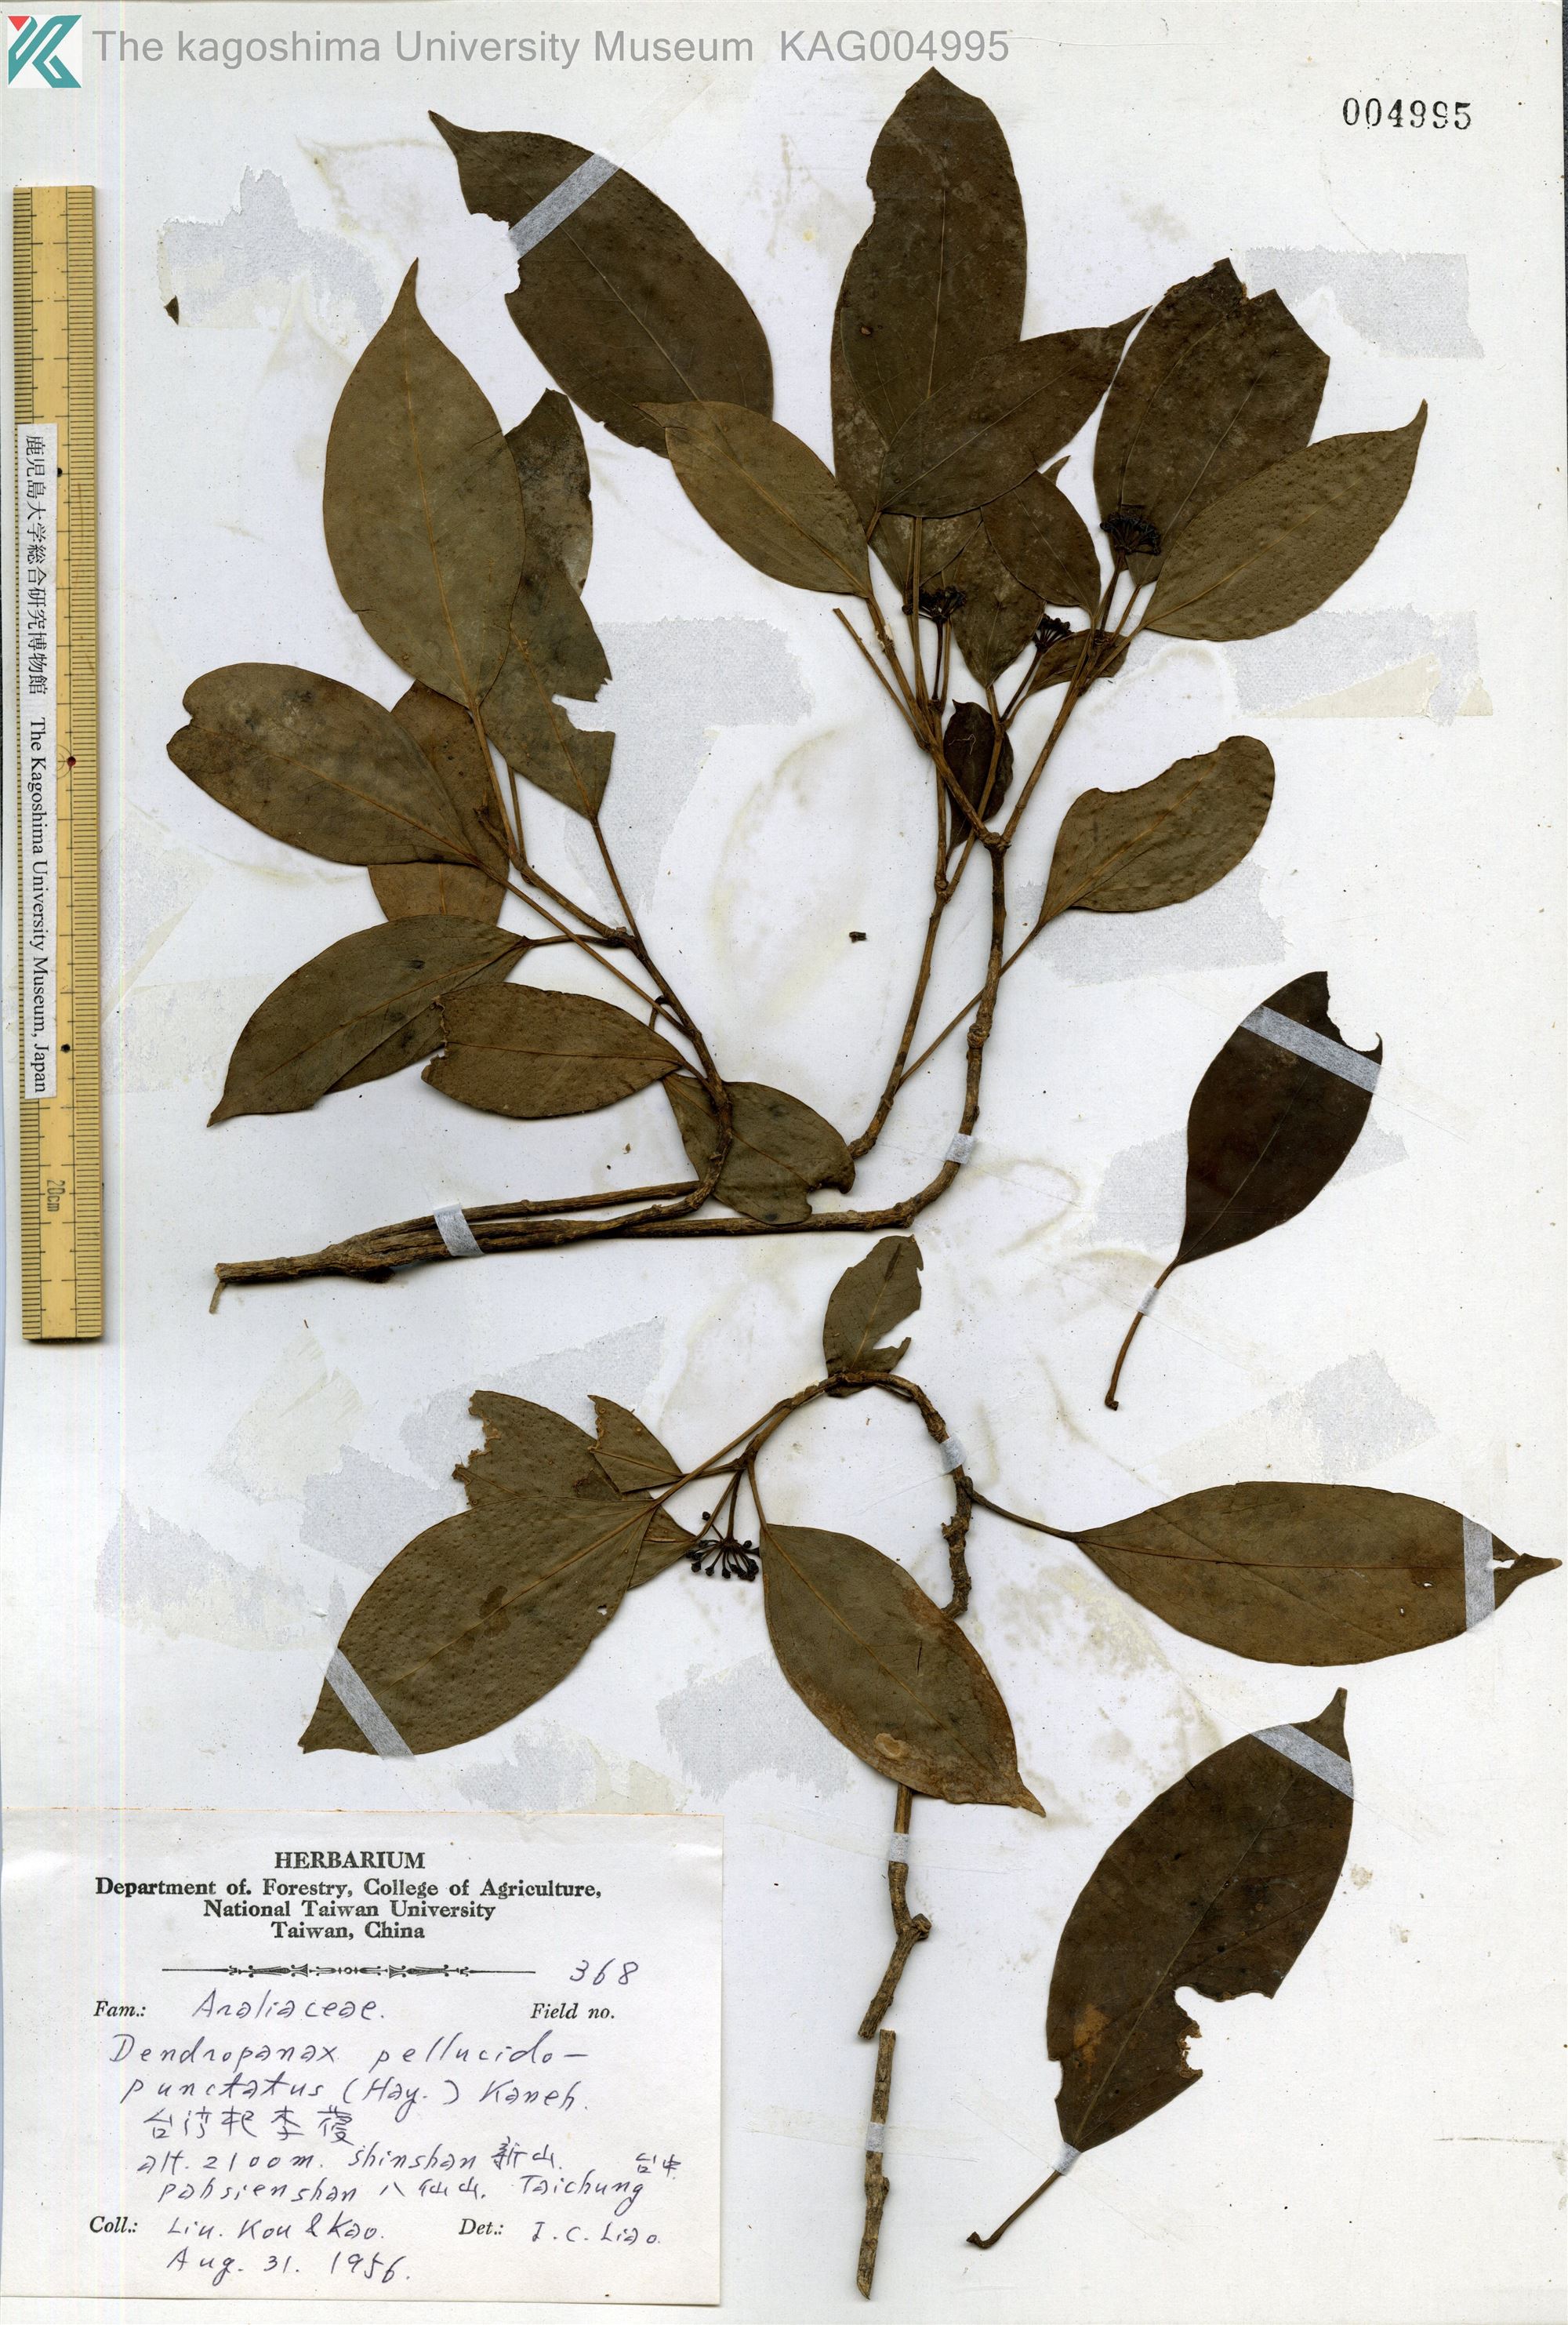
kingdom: Plantae
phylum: Tracheophyta
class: Magnoliopsida
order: Apiales
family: Araliaceae
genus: Dendropanax
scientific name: Dendropanax pellucidopunctatus
